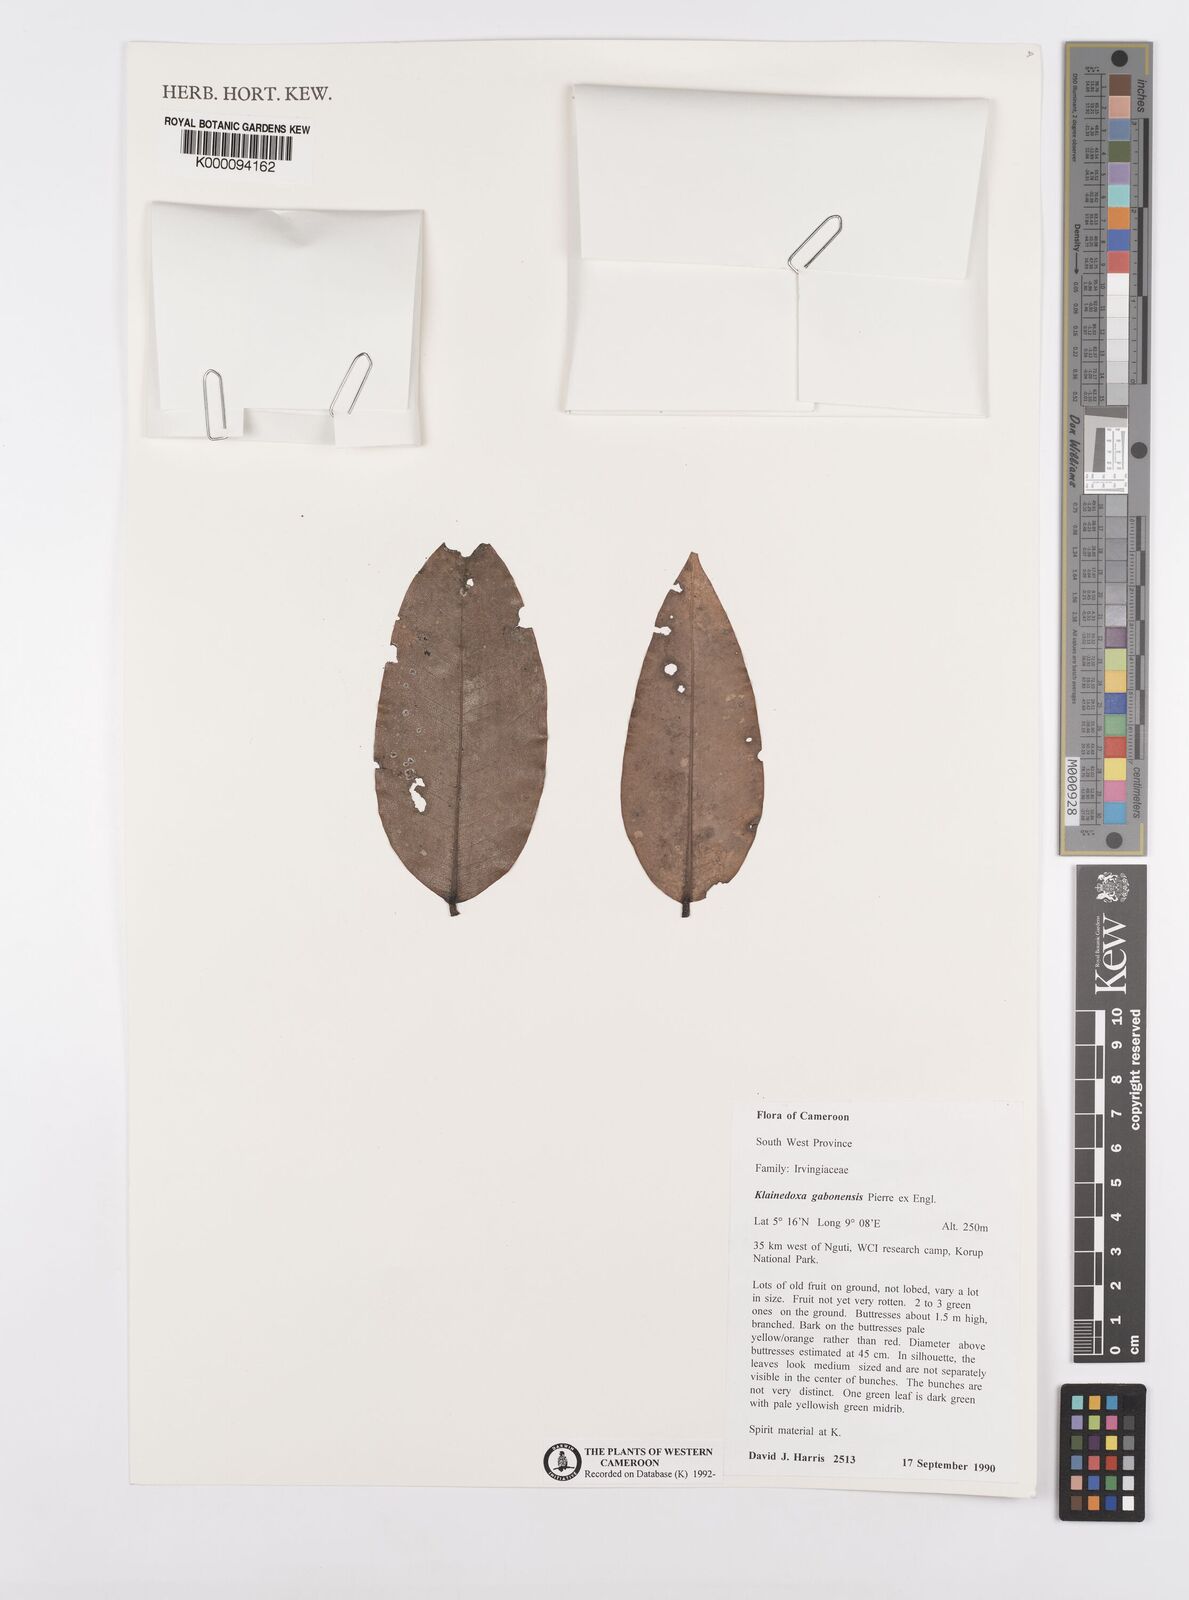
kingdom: Plantae
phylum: Tracheophyta
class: Magnoliopsida
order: Malpighiales
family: Irvingiaceae
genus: Klainedoxa
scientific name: Klainedoxa gabonensis
